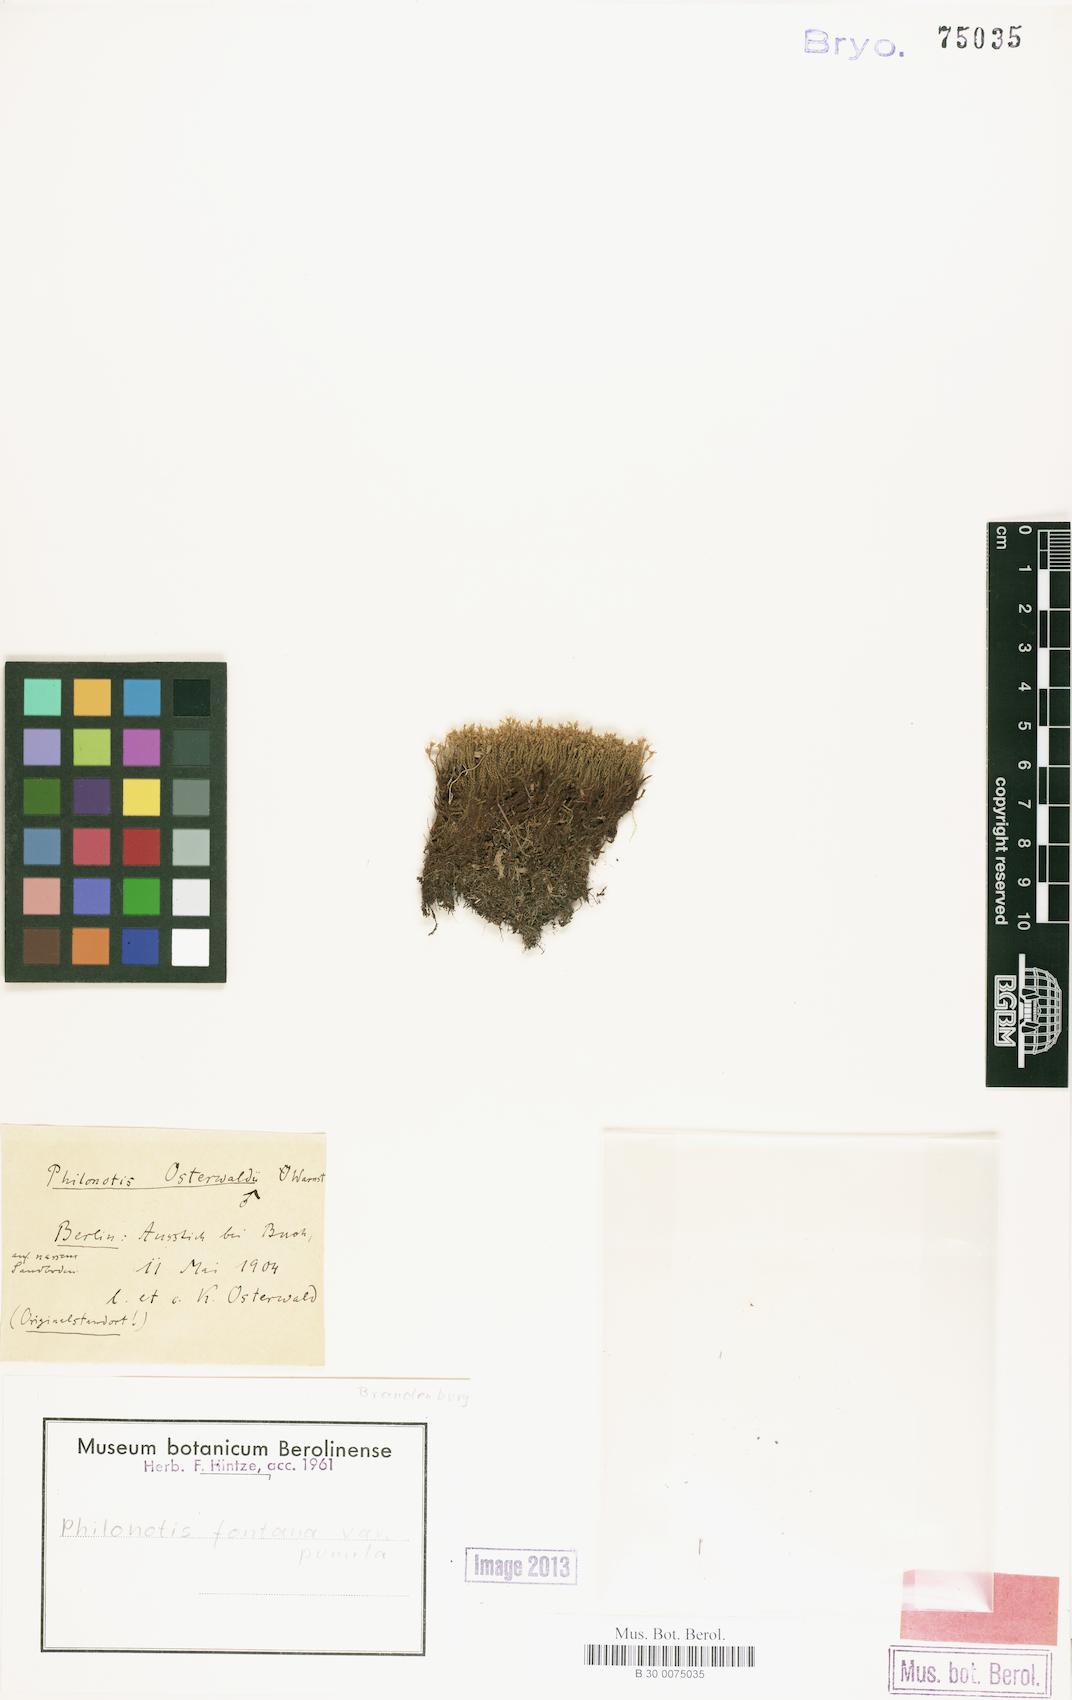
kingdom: Plantae
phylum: Bryophyta
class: Bryopsida
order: Bartramiales
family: Bartramiaceae
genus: Philonotis
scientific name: Philonotis tomentella
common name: Woolly apple moss
